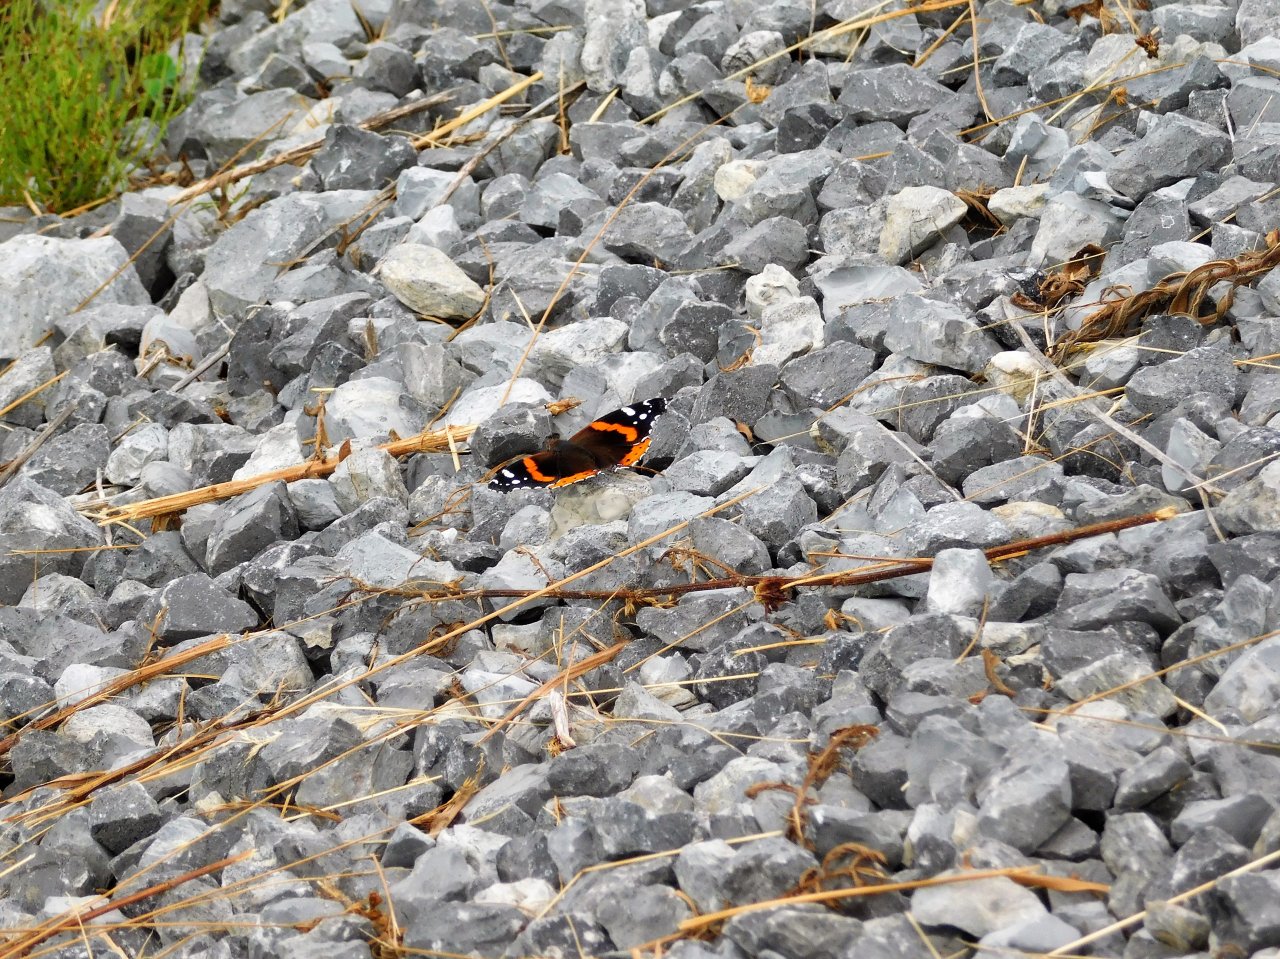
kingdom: Animalia
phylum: Arthropoda
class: Insecta
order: Lepidoptera
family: Nymphalidae
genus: Vanessa
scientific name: Vanessa atalanta
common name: Red Admiral
